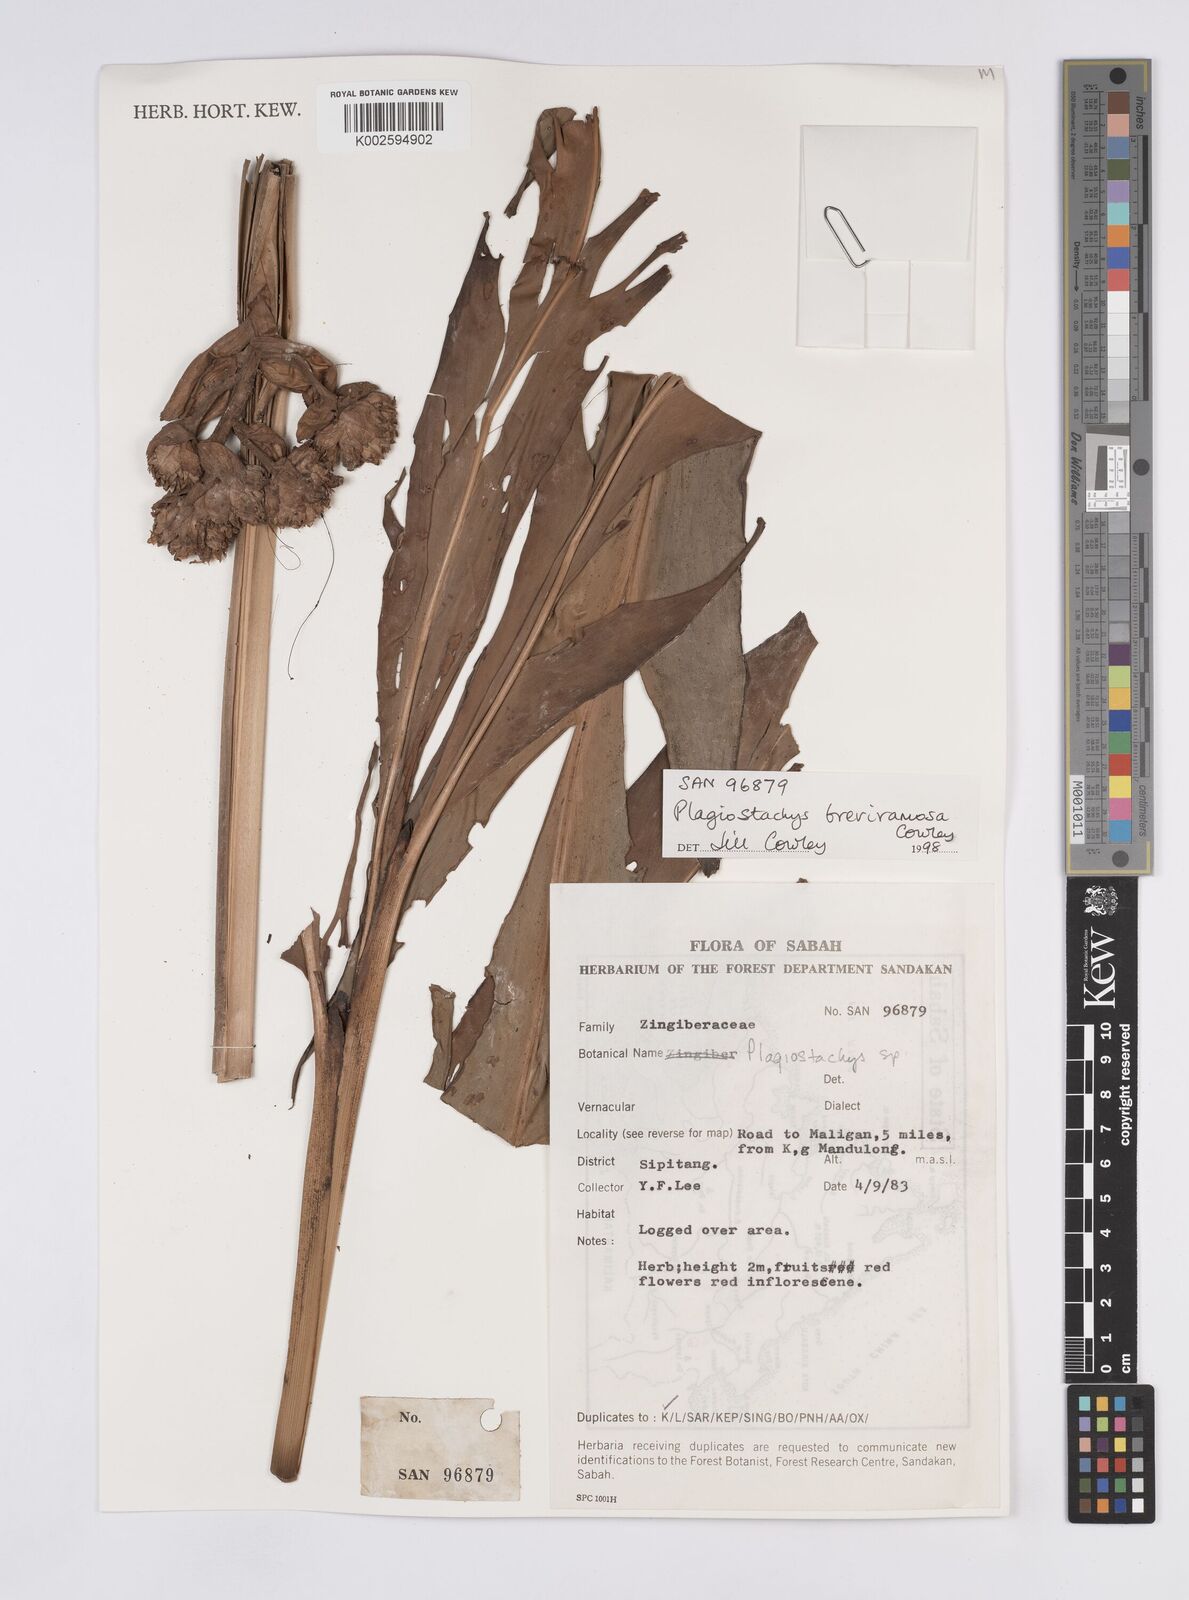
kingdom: Plantae
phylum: Tracheophyta
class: Liliopsida
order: Zingiberales
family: Zingiberaceae
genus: Plagiostachys
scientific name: Plagiostachys breviramosa
